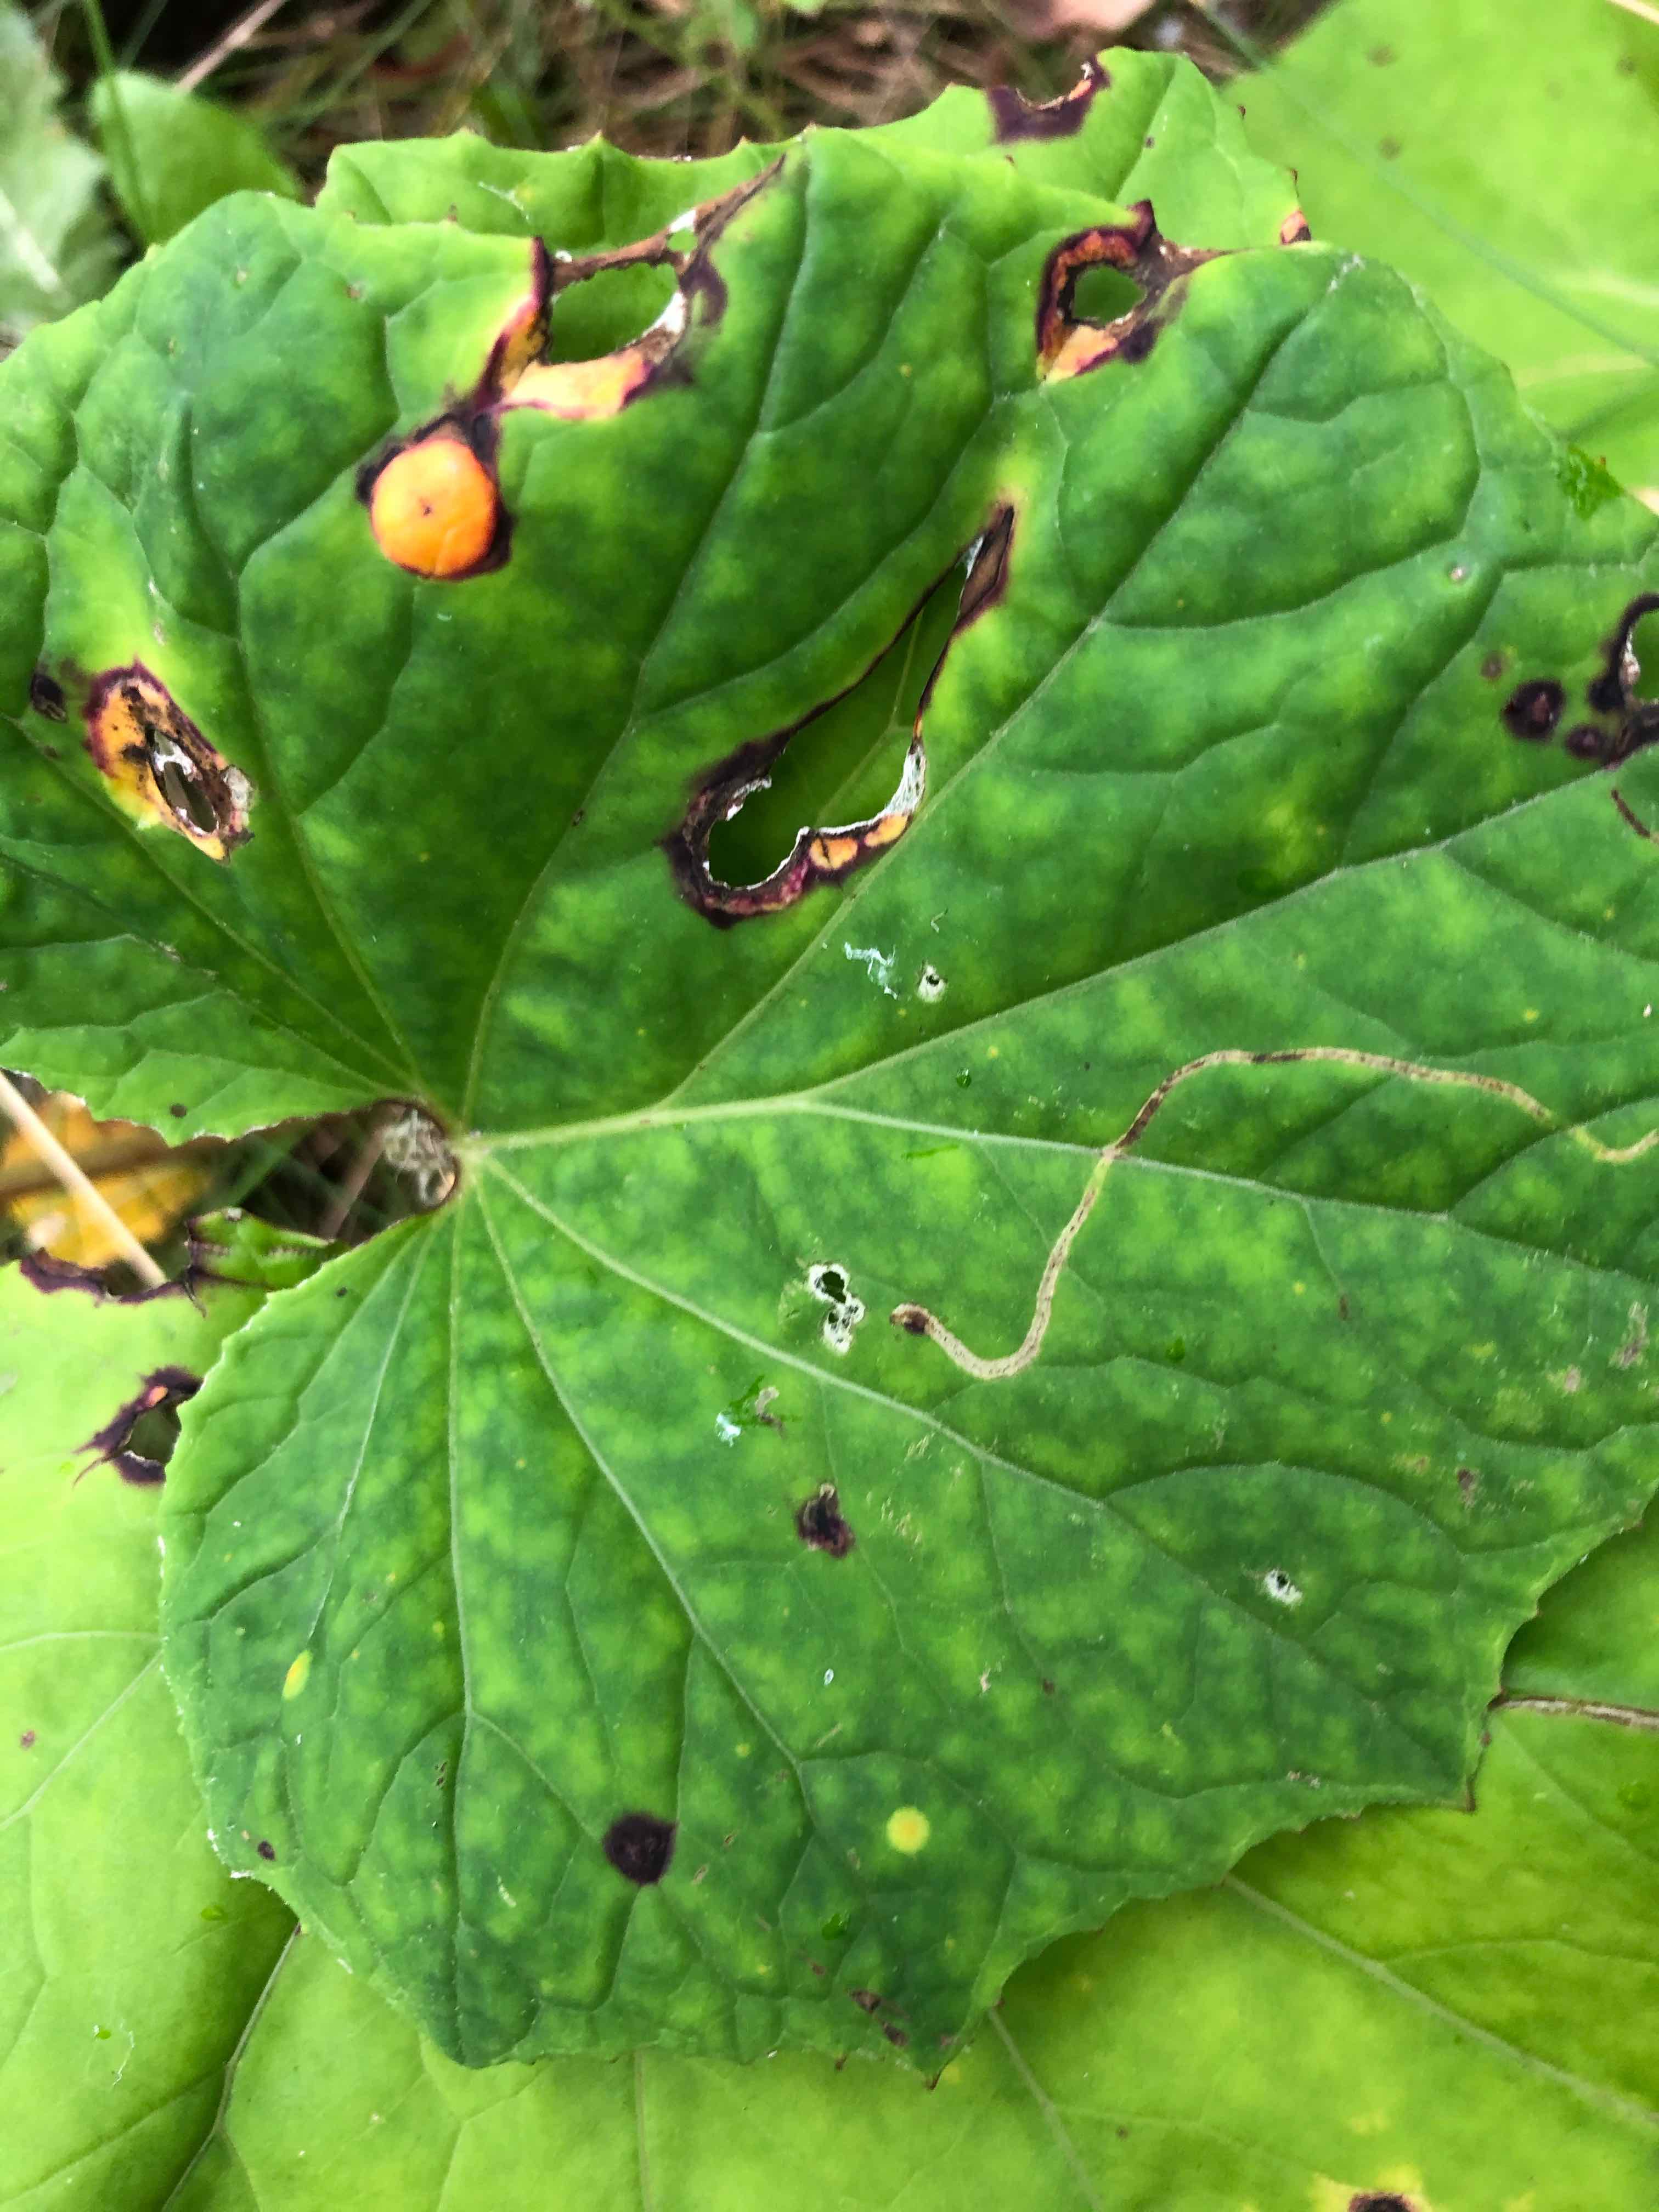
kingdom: Fungi
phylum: Basidiomycota
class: Pucciniomycetes
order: Pucciniales
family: Pucciniaceae
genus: Puccinia
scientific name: Puccinia poarum
